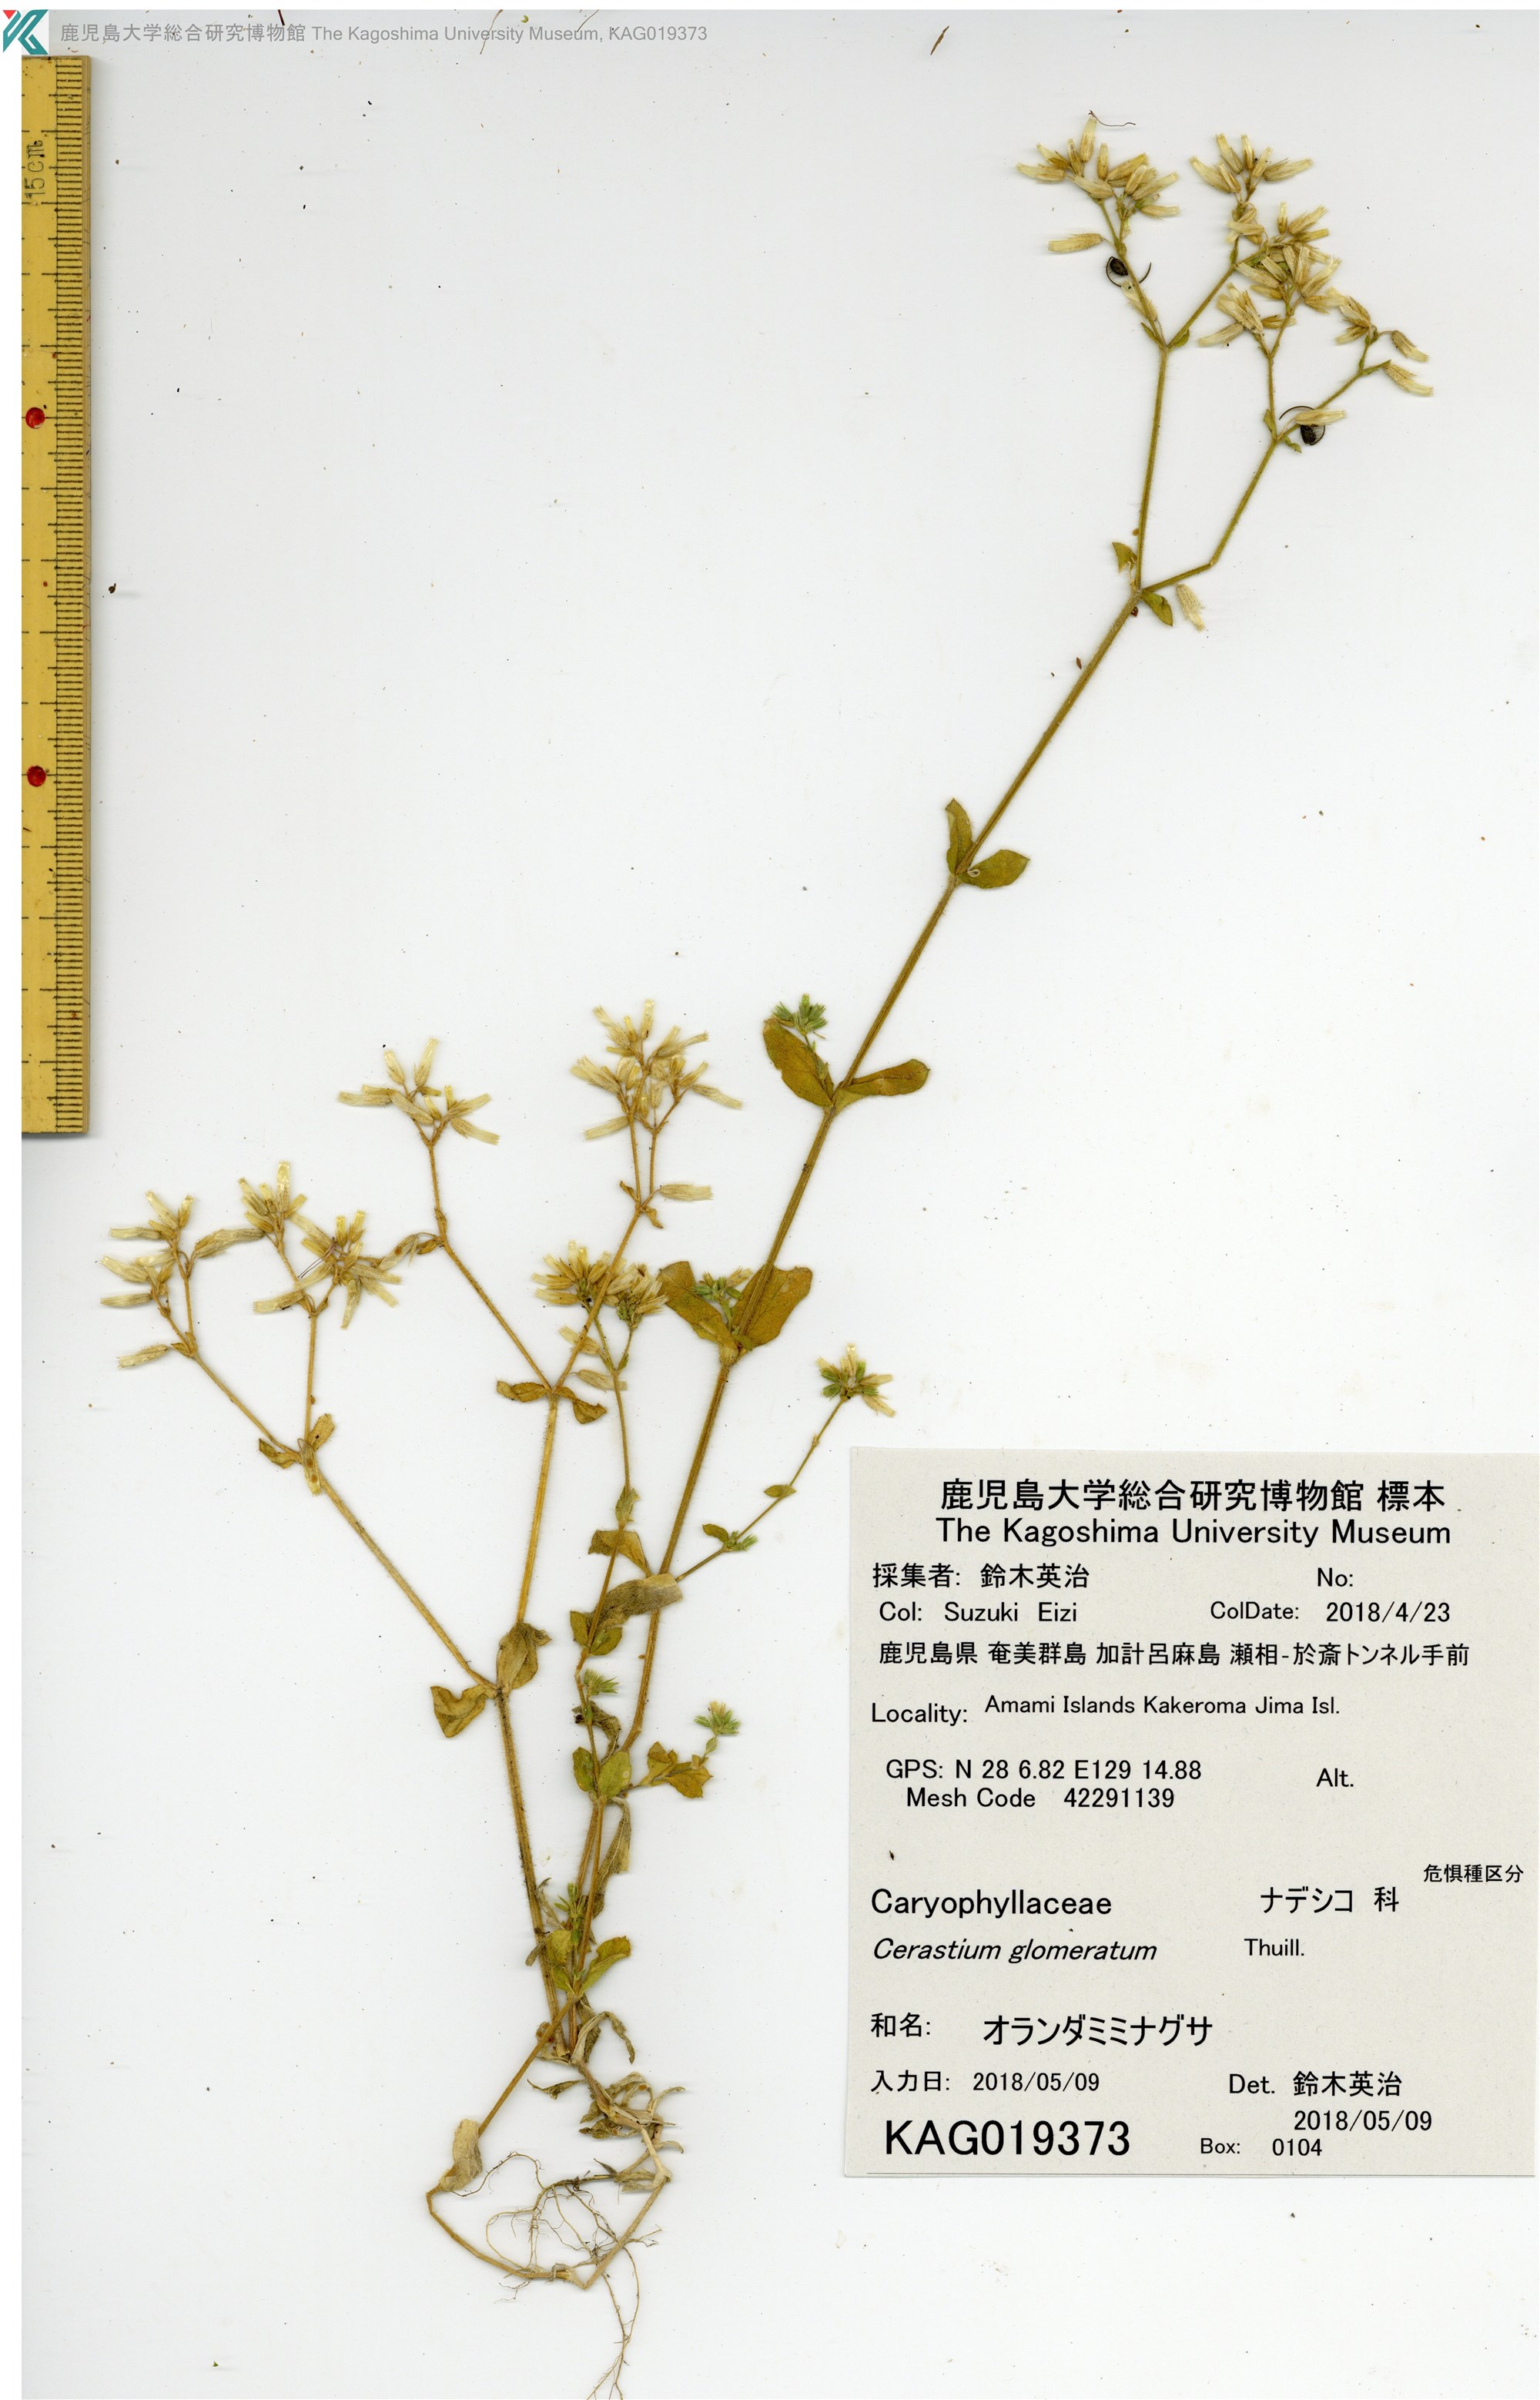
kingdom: Plantae
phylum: Tracheophyta
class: Magnoliopsida
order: Caryophyllales
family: Caryophyllaceae
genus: Cerastium
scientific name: Cerastium glomeratum
